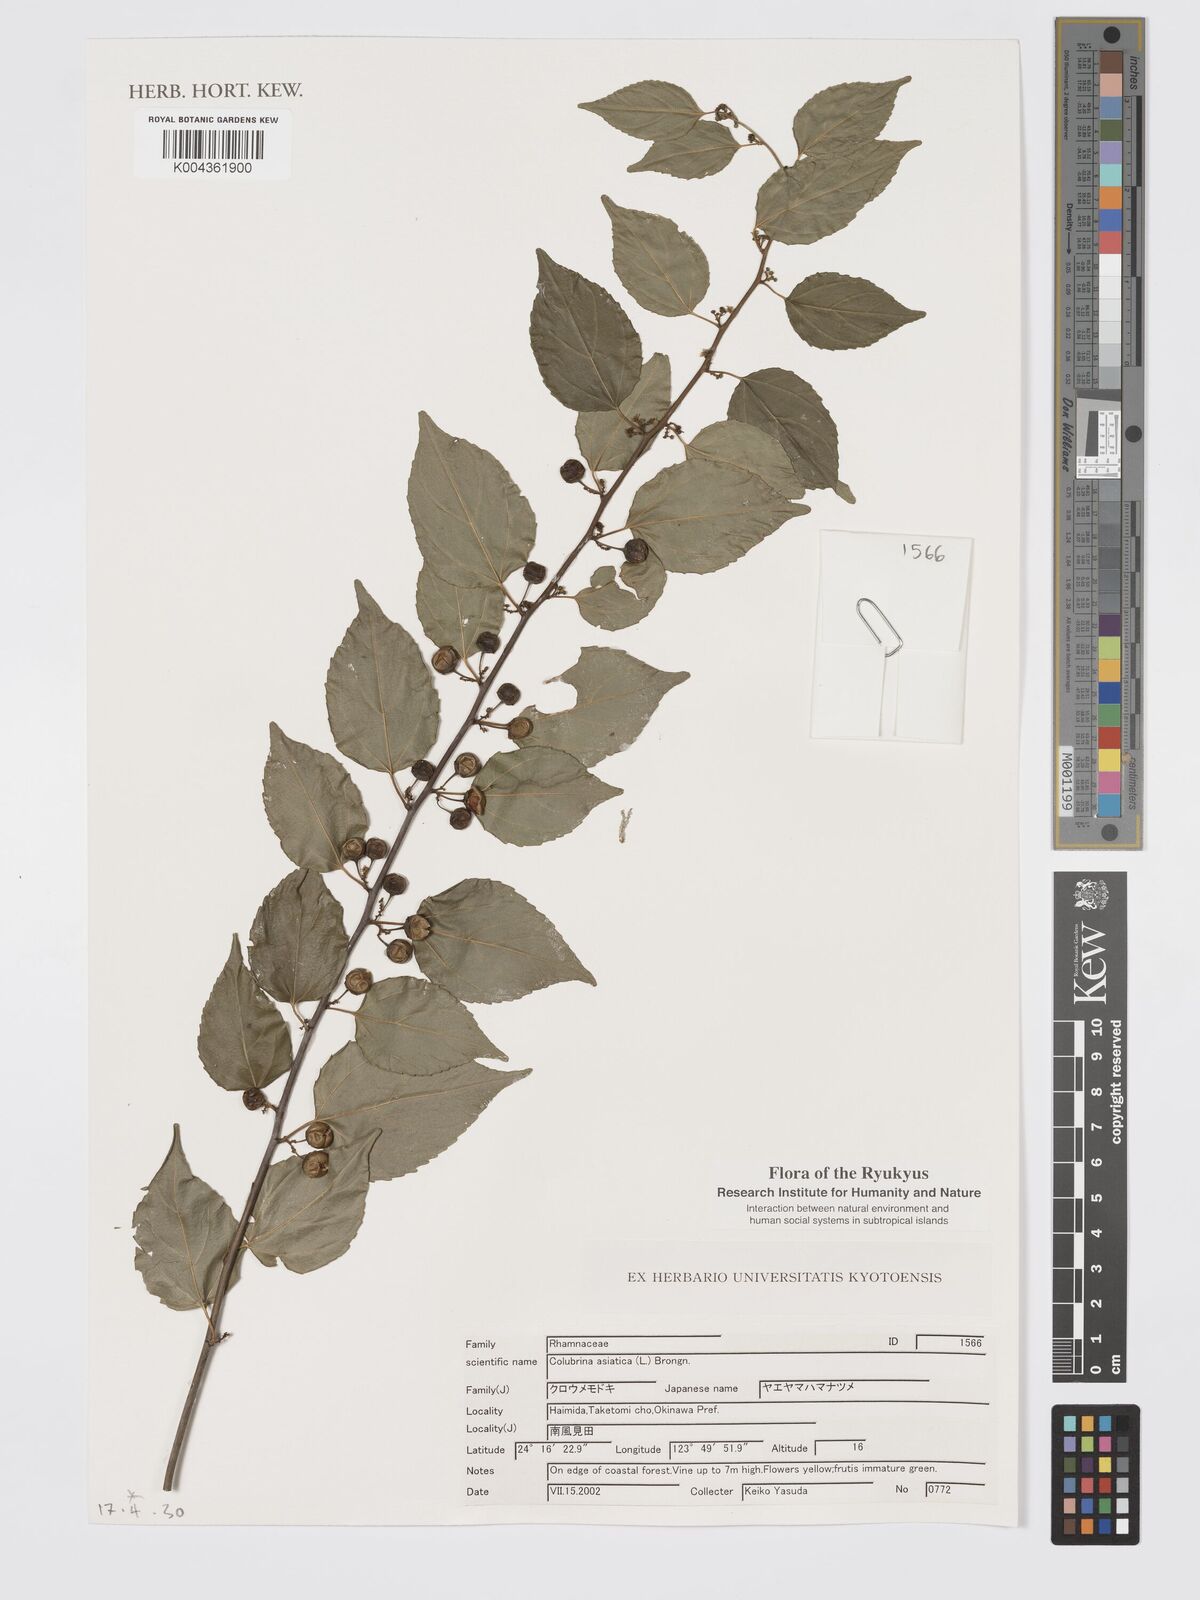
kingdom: Plantae
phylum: Tracheophyta
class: Magnoliopsida
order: Rosales
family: Rhamnaceae
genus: Colubrina
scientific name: Colubrina asiatica
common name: Asian nakedwood
